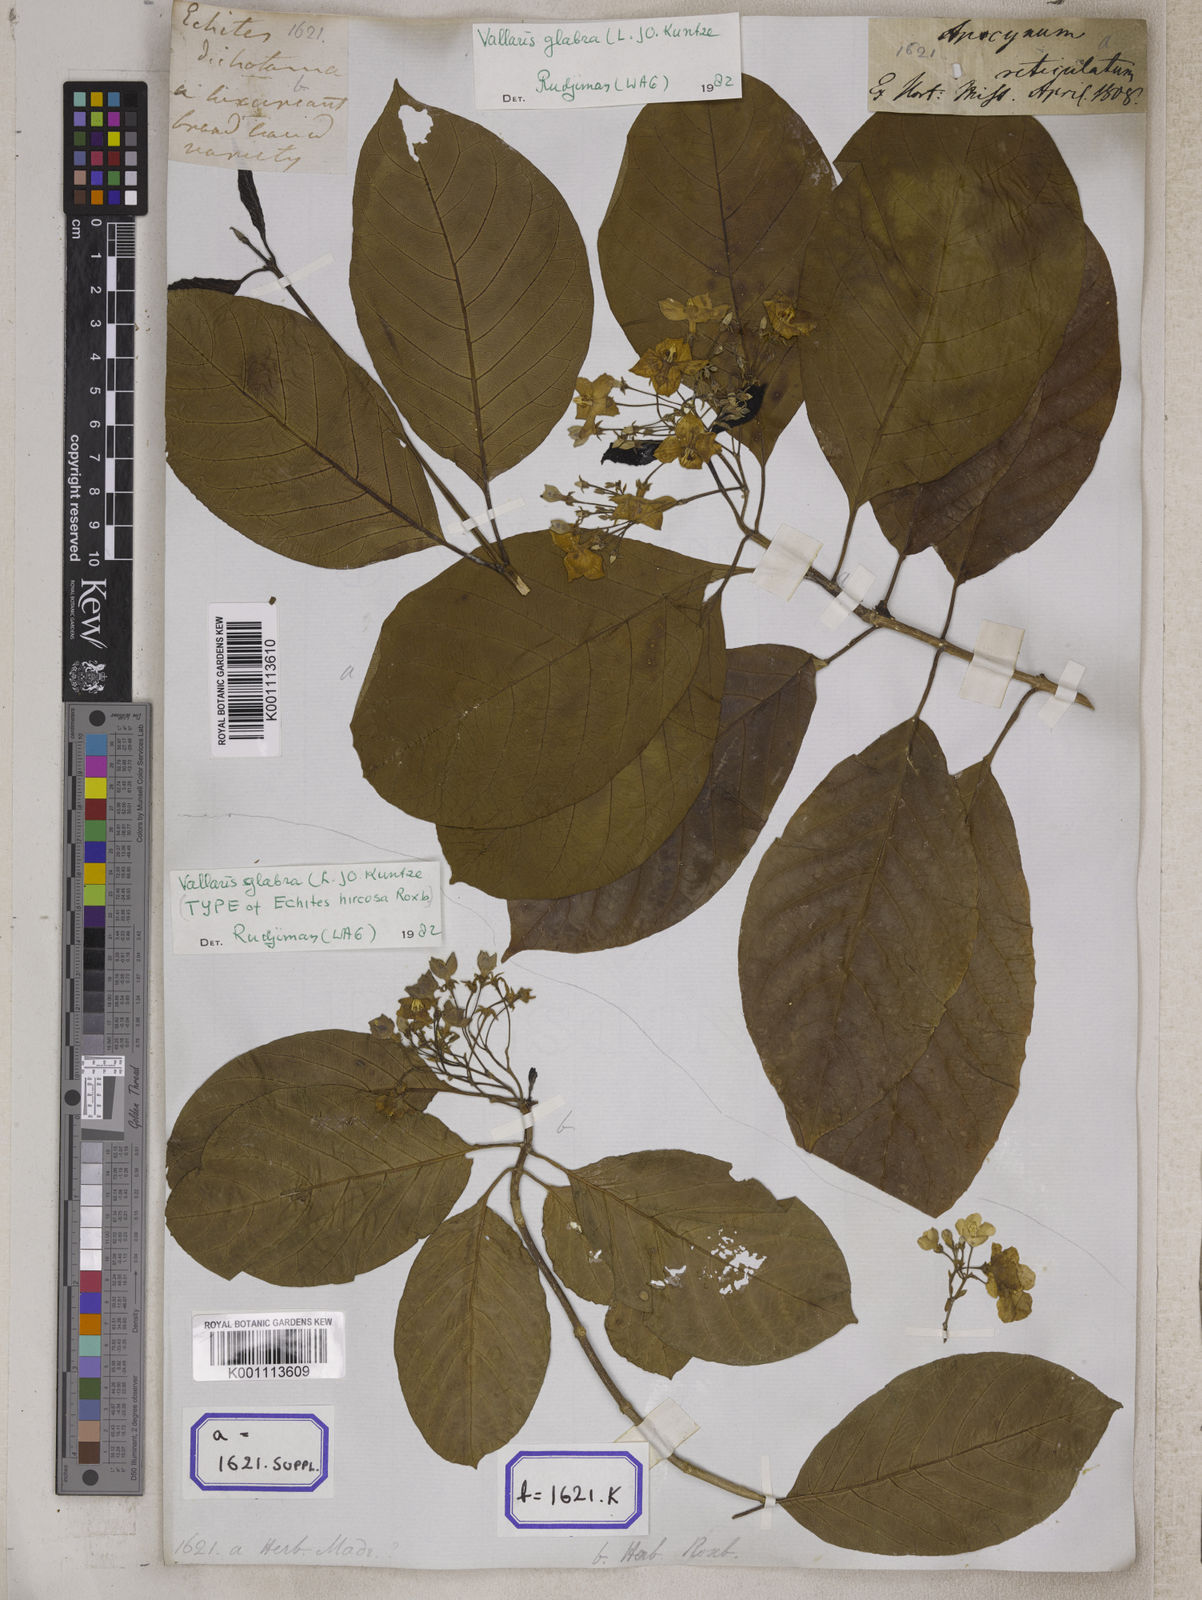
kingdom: Plantae
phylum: Tracheophyta
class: Magnoliopsida
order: Gentianales
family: Apocynaceae
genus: Vallaris
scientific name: Vallaris glabra
